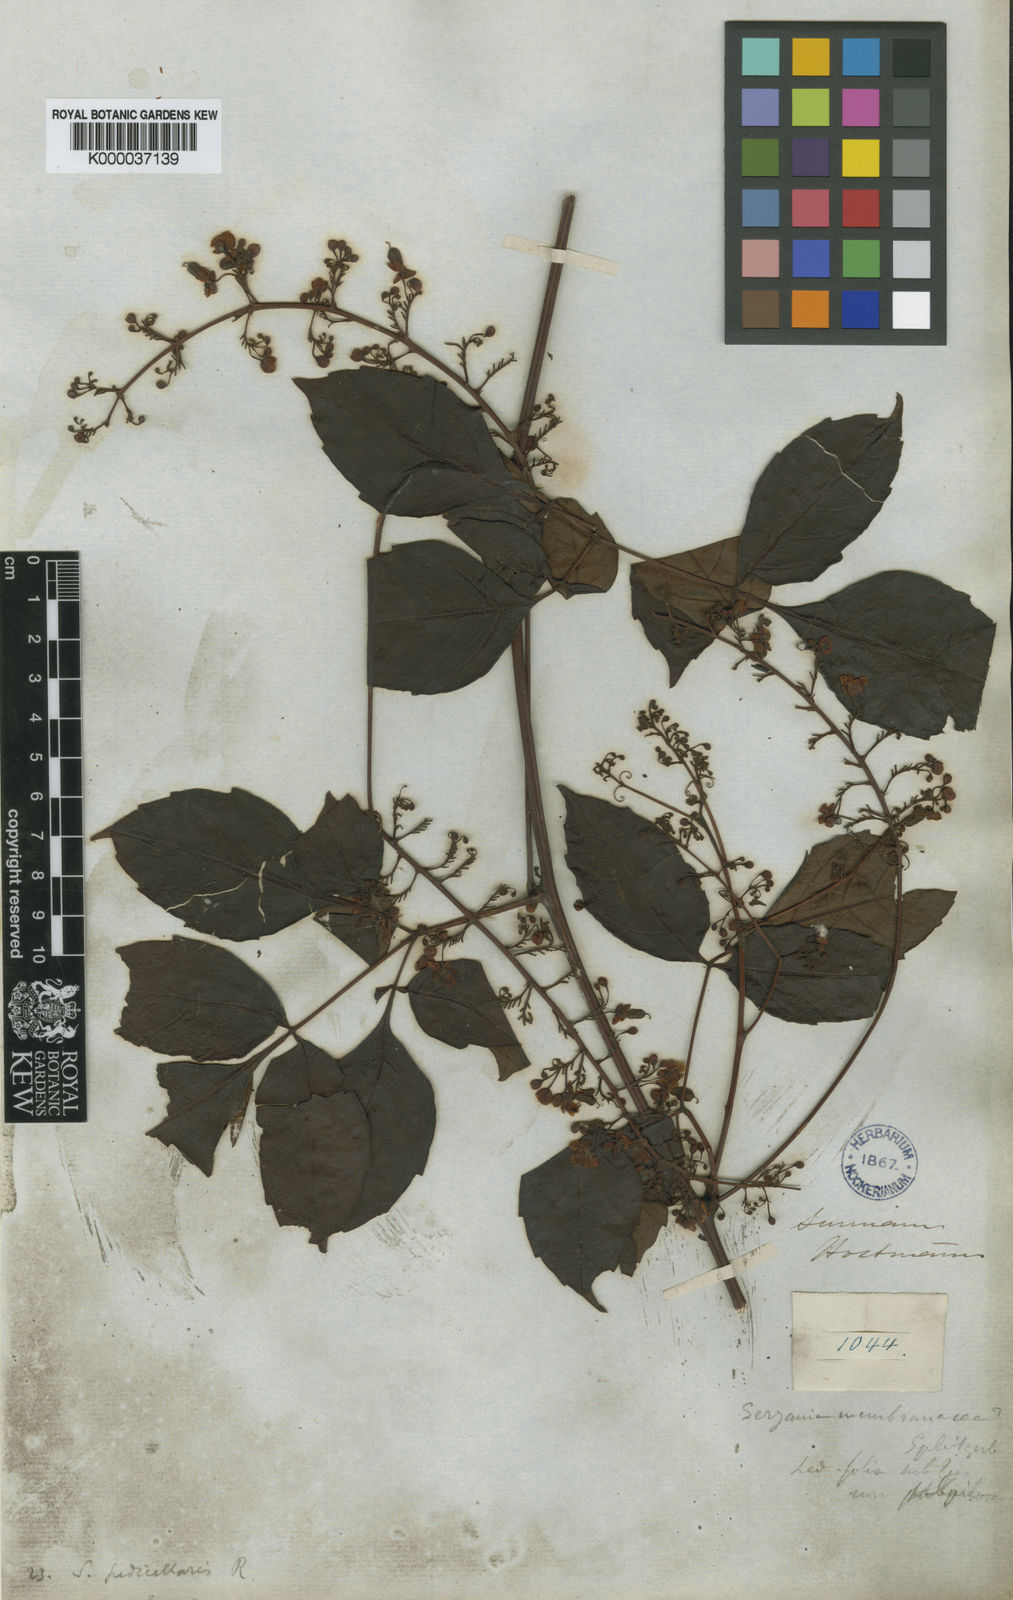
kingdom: Plantae
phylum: Tracheophyta
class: Magnoliopsida
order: Sapindales
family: Sapindaceae
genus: Serjania
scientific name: Serjania pedicellaris
